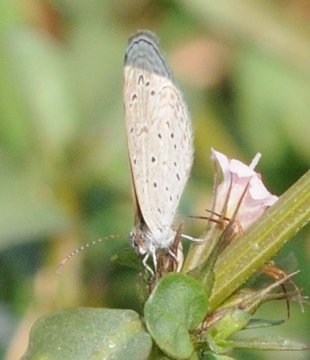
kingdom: Animalia
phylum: Arthropoda
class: Insecta
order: Lepidoptera
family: Lycaenidae
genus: Zizula
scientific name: Zizula hylax
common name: Tiny Grass Blue
